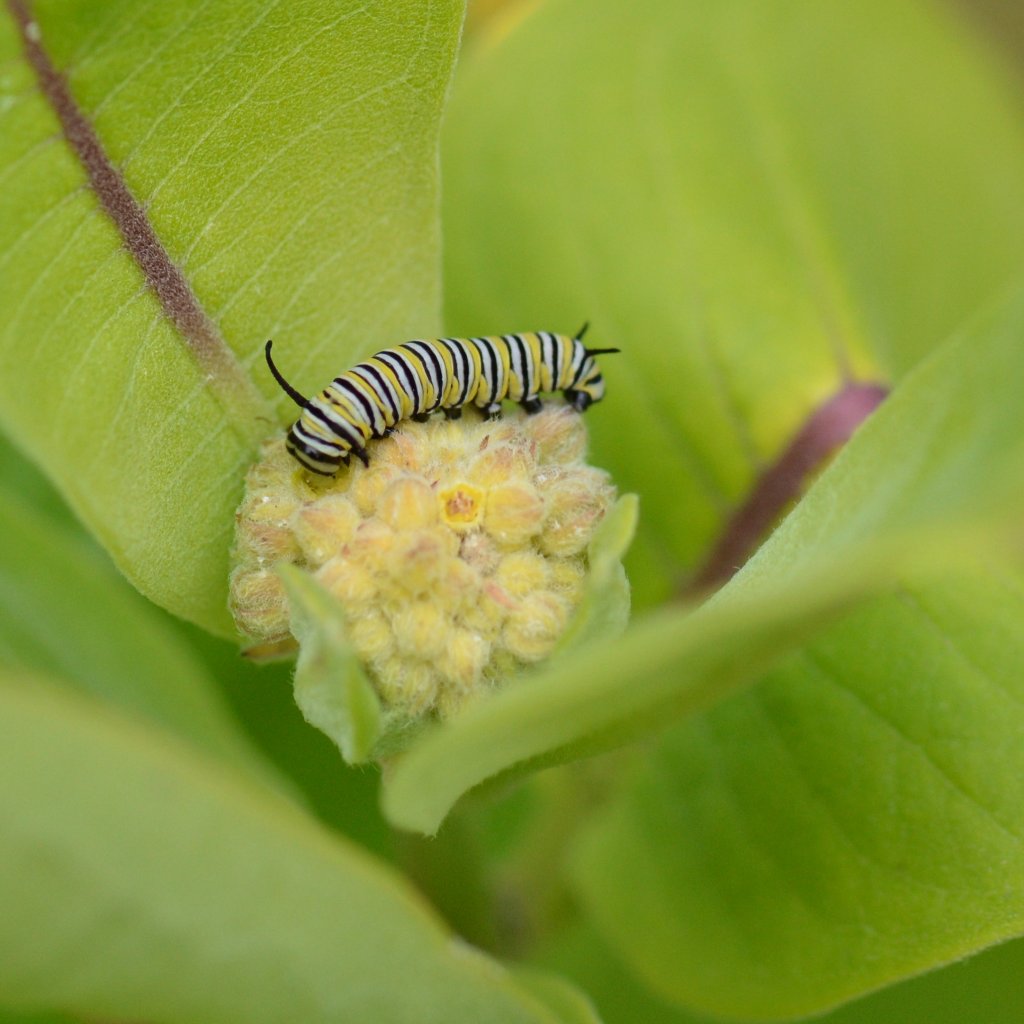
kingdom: Animalia
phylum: Arthropoda
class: Insecta
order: Lepidoptera
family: Nymphalidae
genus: Danaus
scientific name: Danaus plexippus
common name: Monarch
